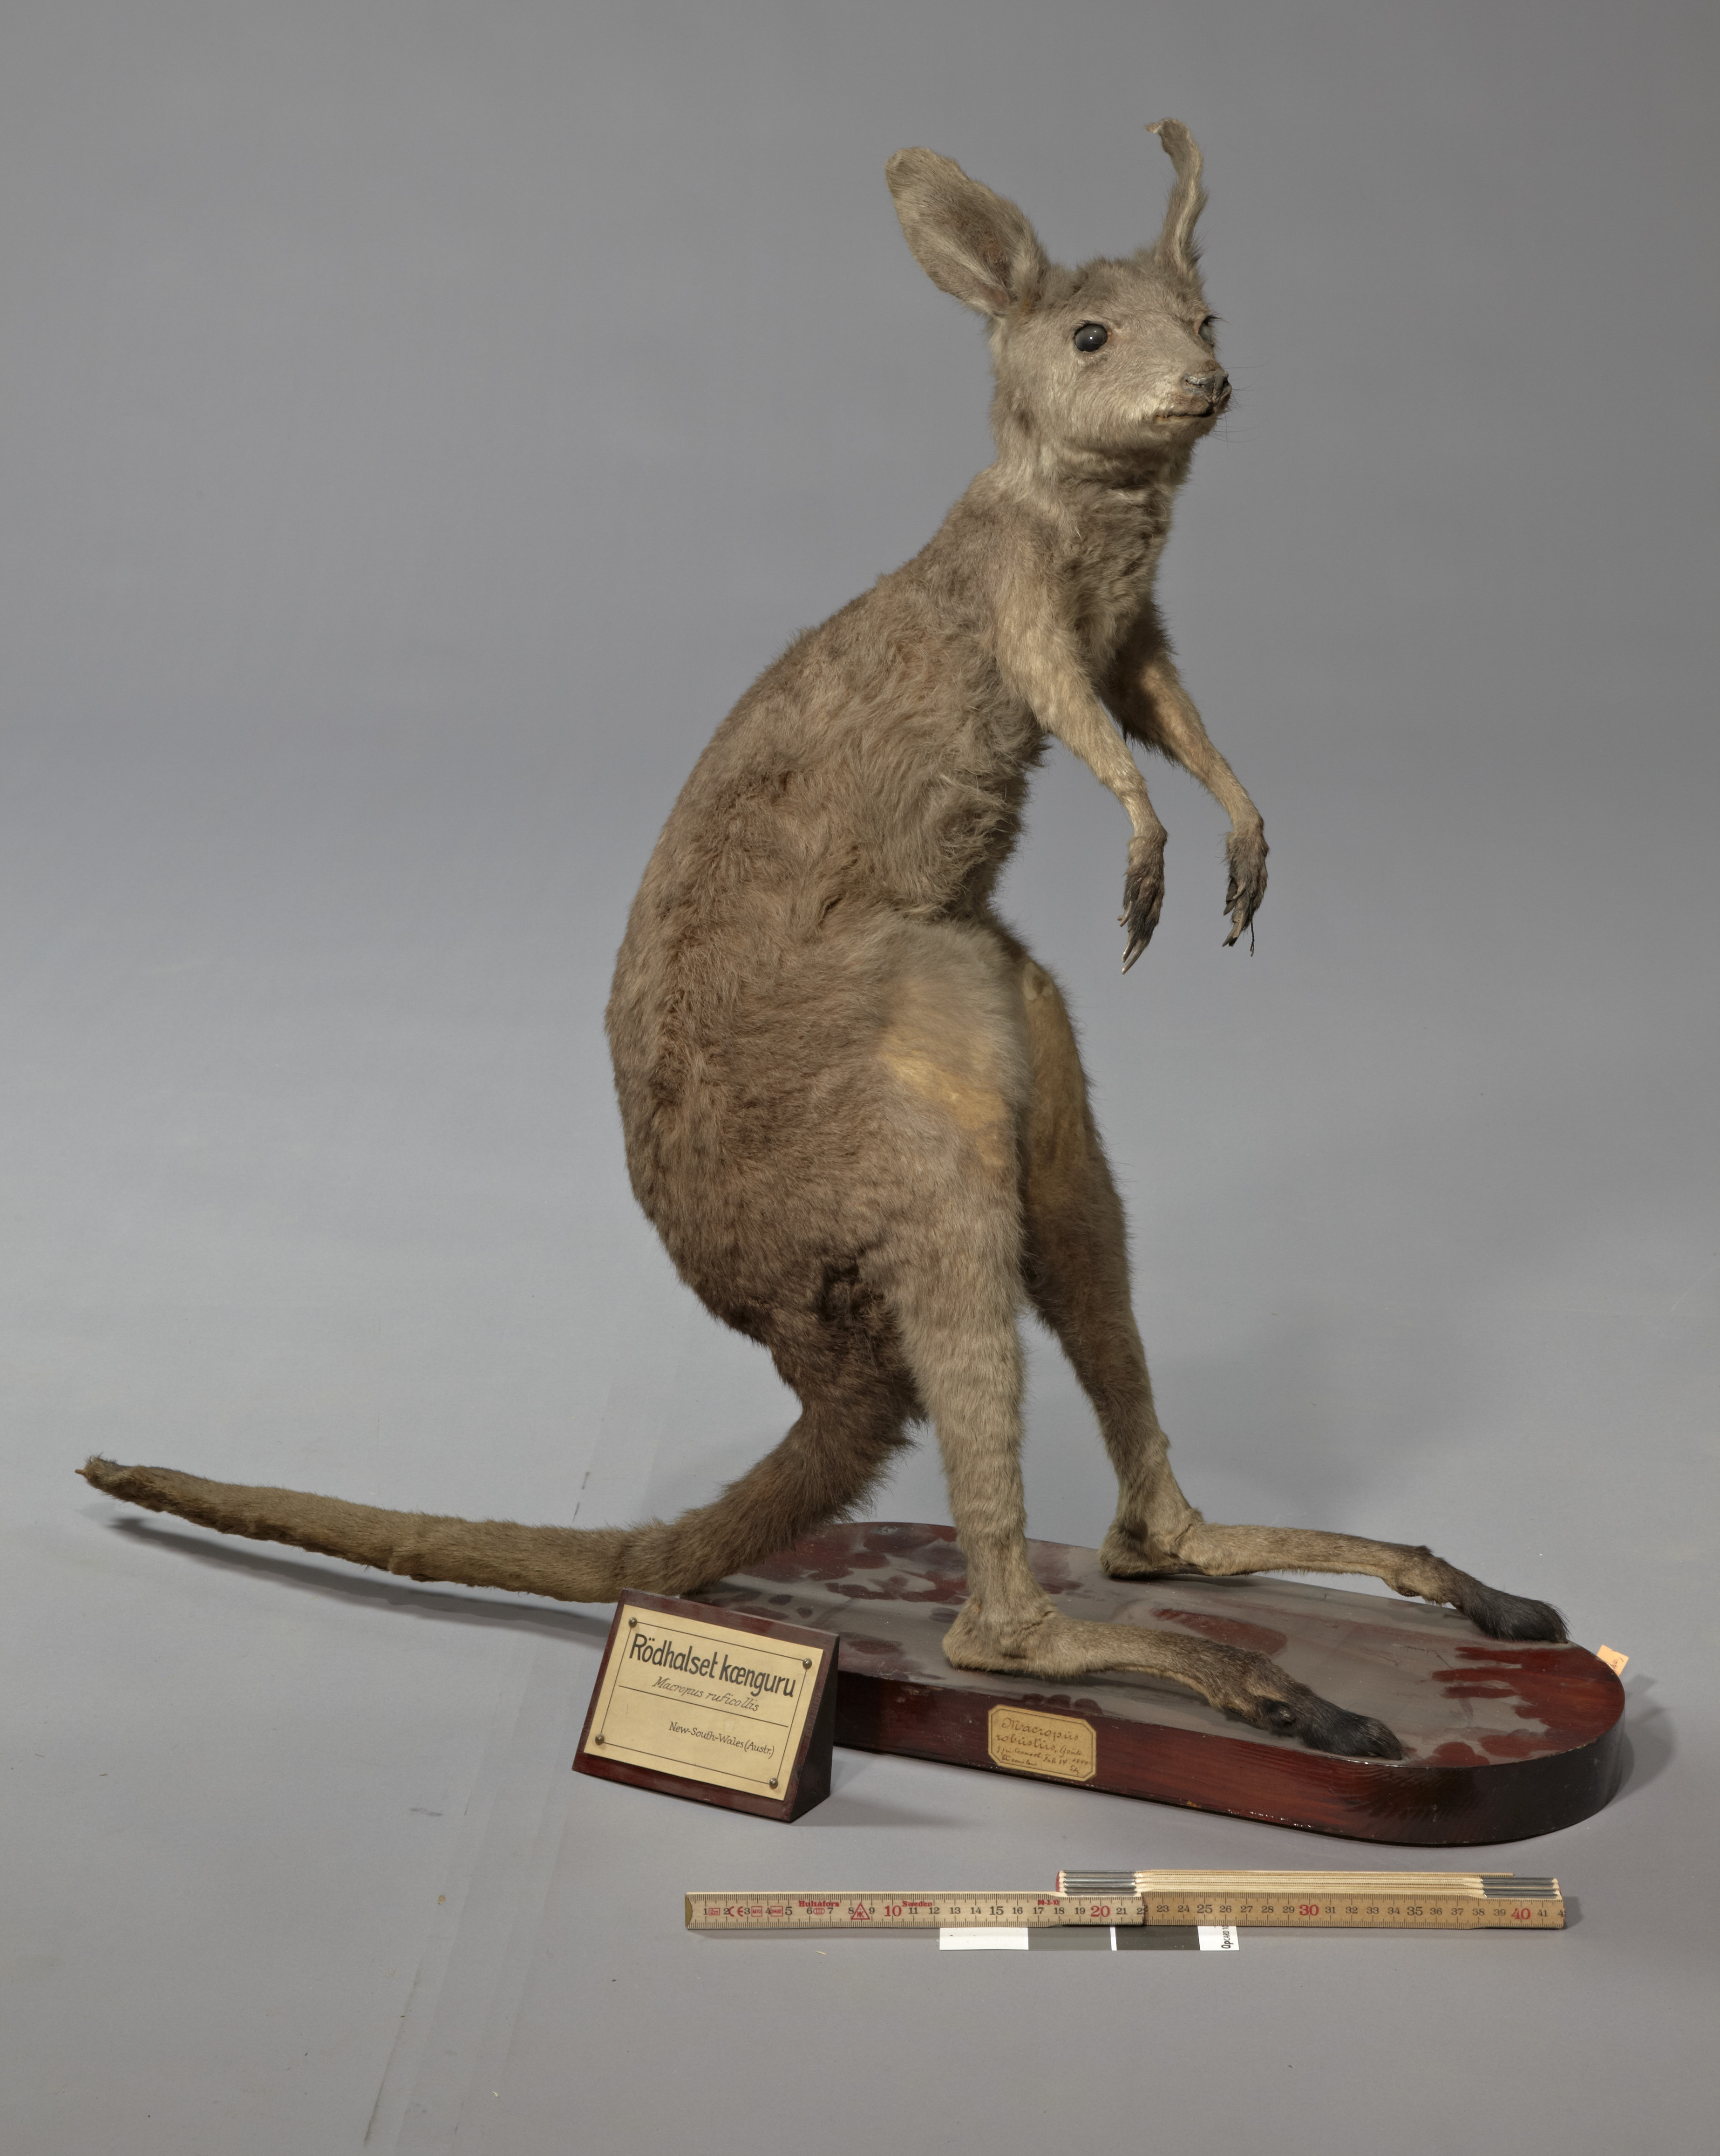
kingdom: Animalia
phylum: Chordata
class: Mammalia
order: Diprotodontia
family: Macropodidae
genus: Macropus
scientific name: Macropus robustus
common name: Eastern wallaroo
